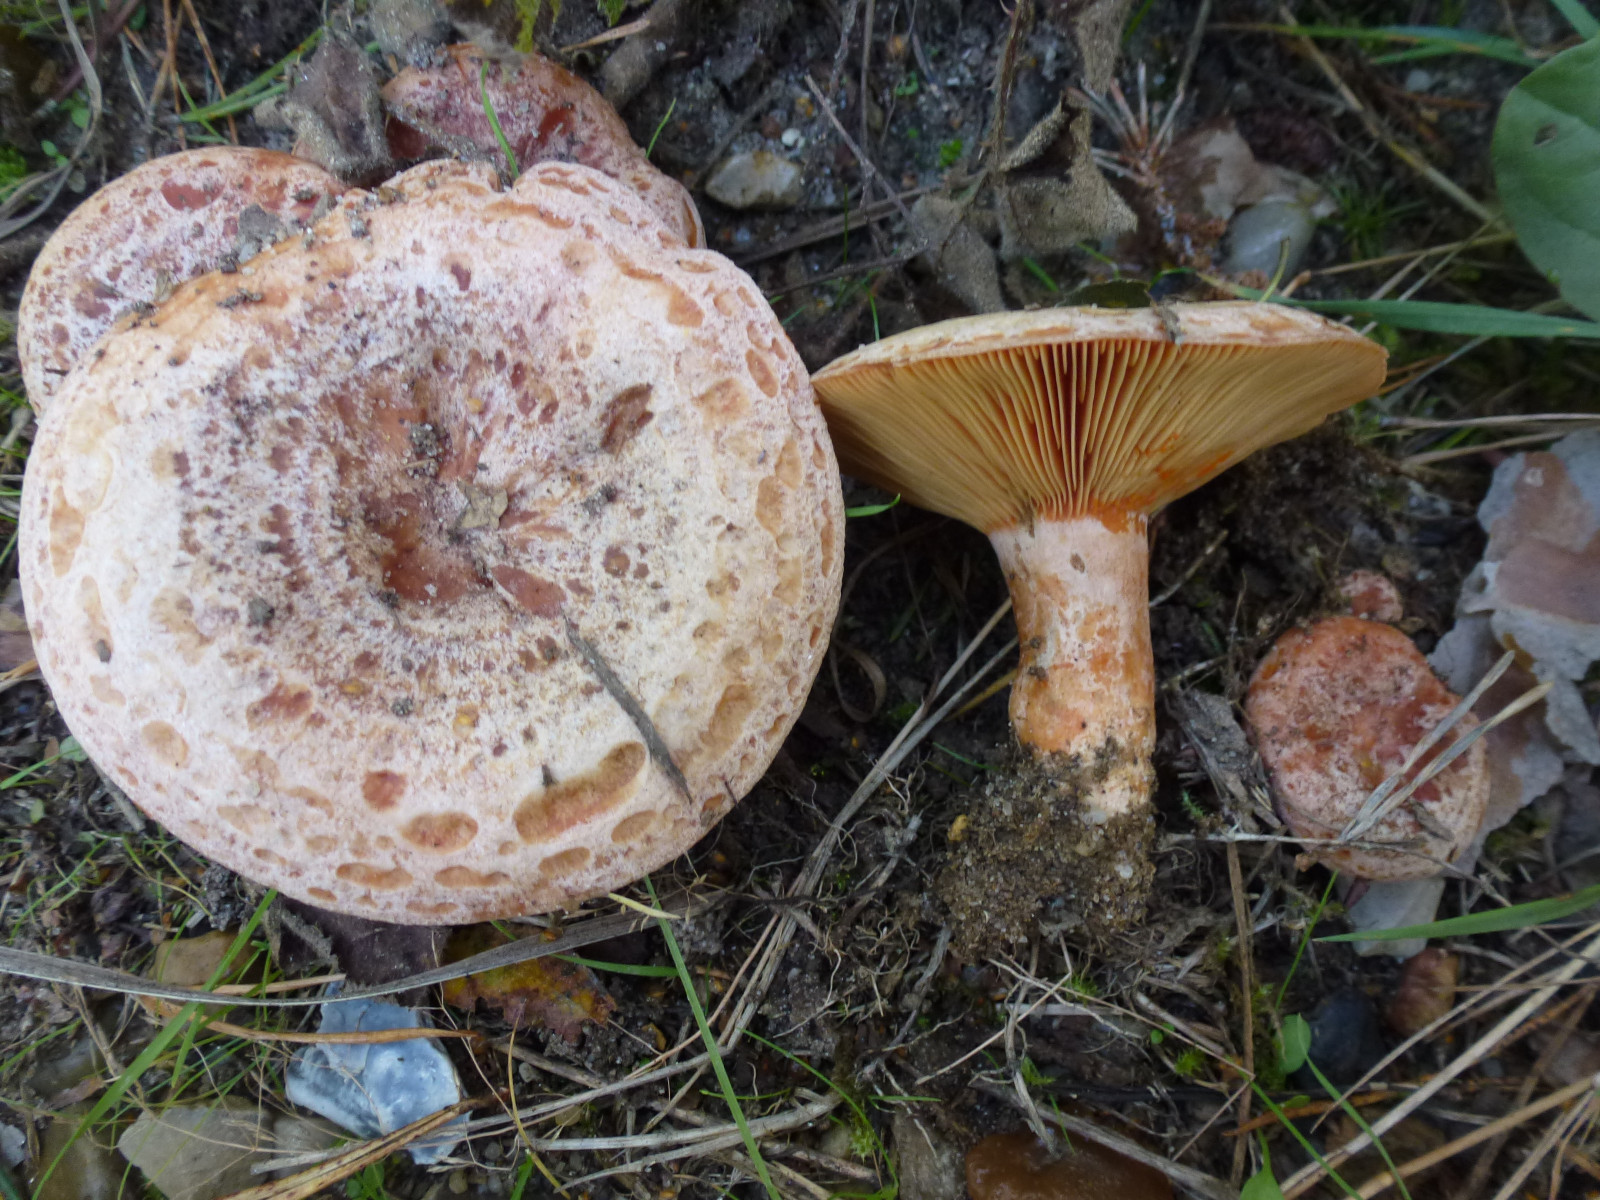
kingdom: Fungi
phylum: Basidiomycota
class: Agaricomycetes
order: Russulales
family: Russulaceae
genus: Lactarius
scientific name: Lactarius deliciosus
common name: velsmagende mælkehat
